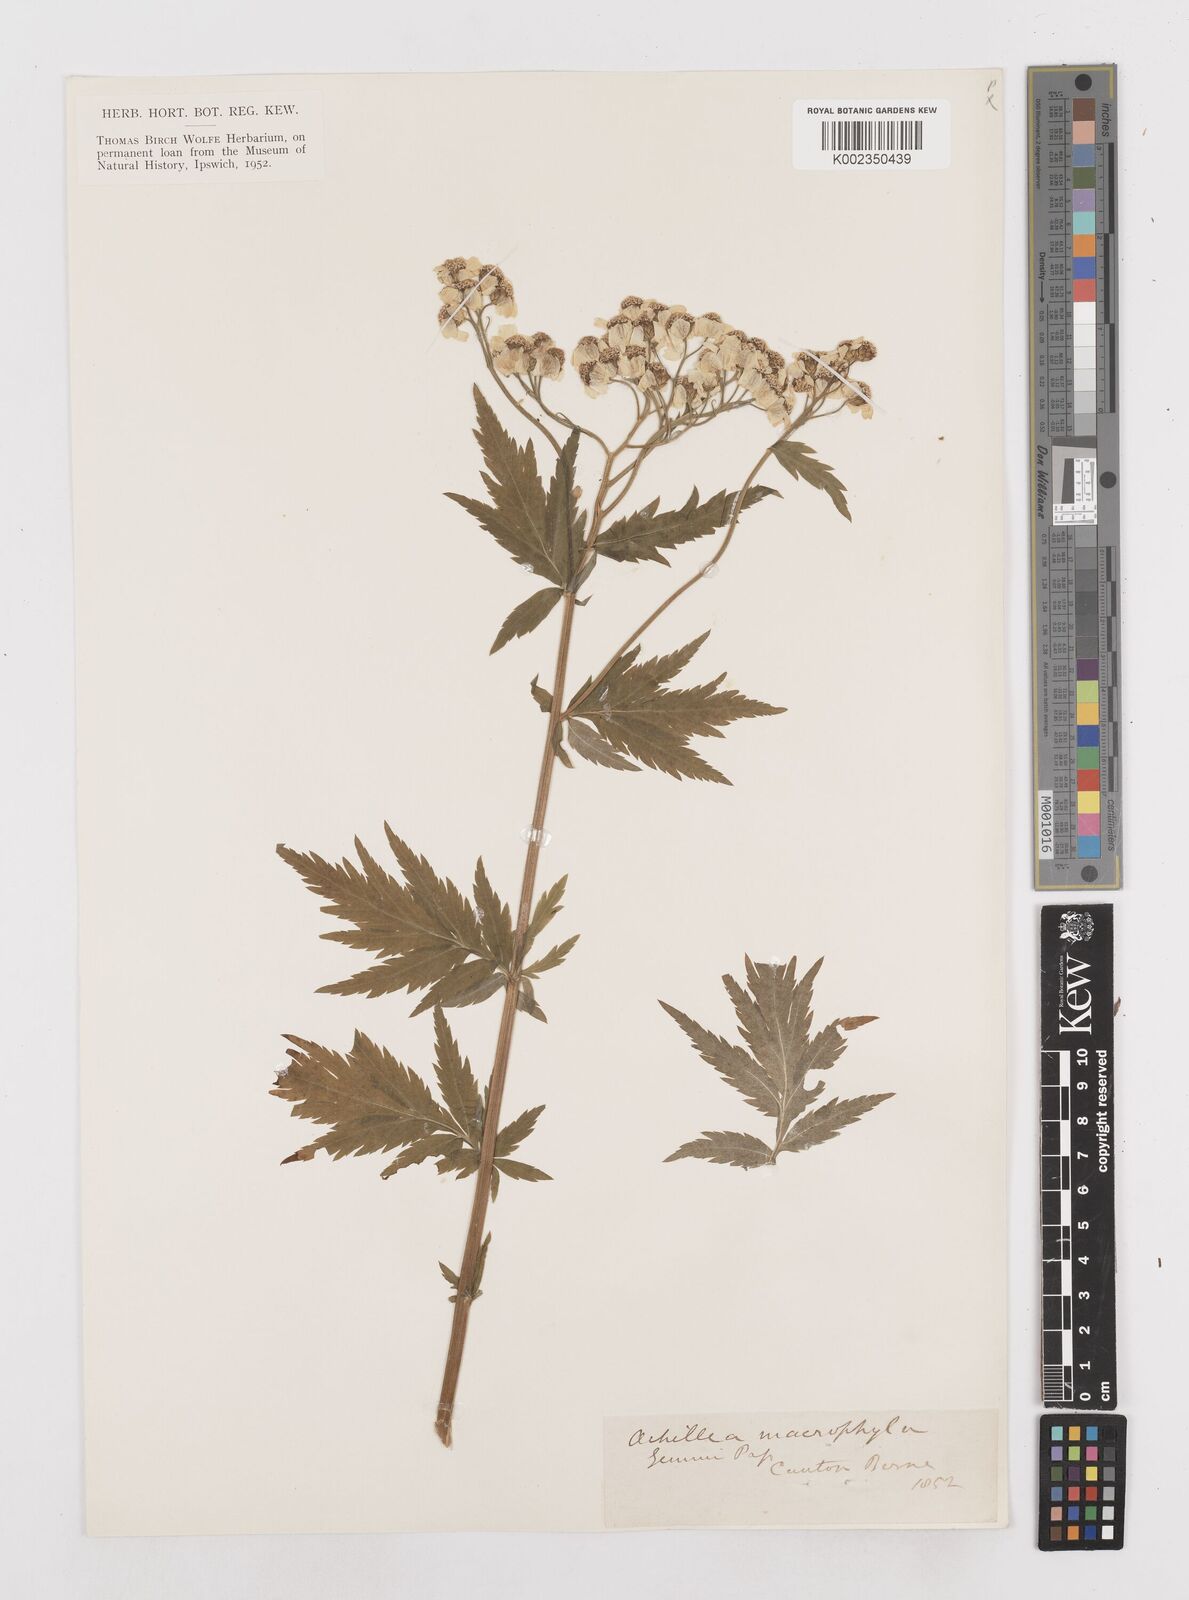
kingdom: Plantae
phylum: Tracheophyta
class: Magnoliopsida
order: Asterales
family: Asteraceae
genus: Achillea
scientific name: Achillea macrophylla
